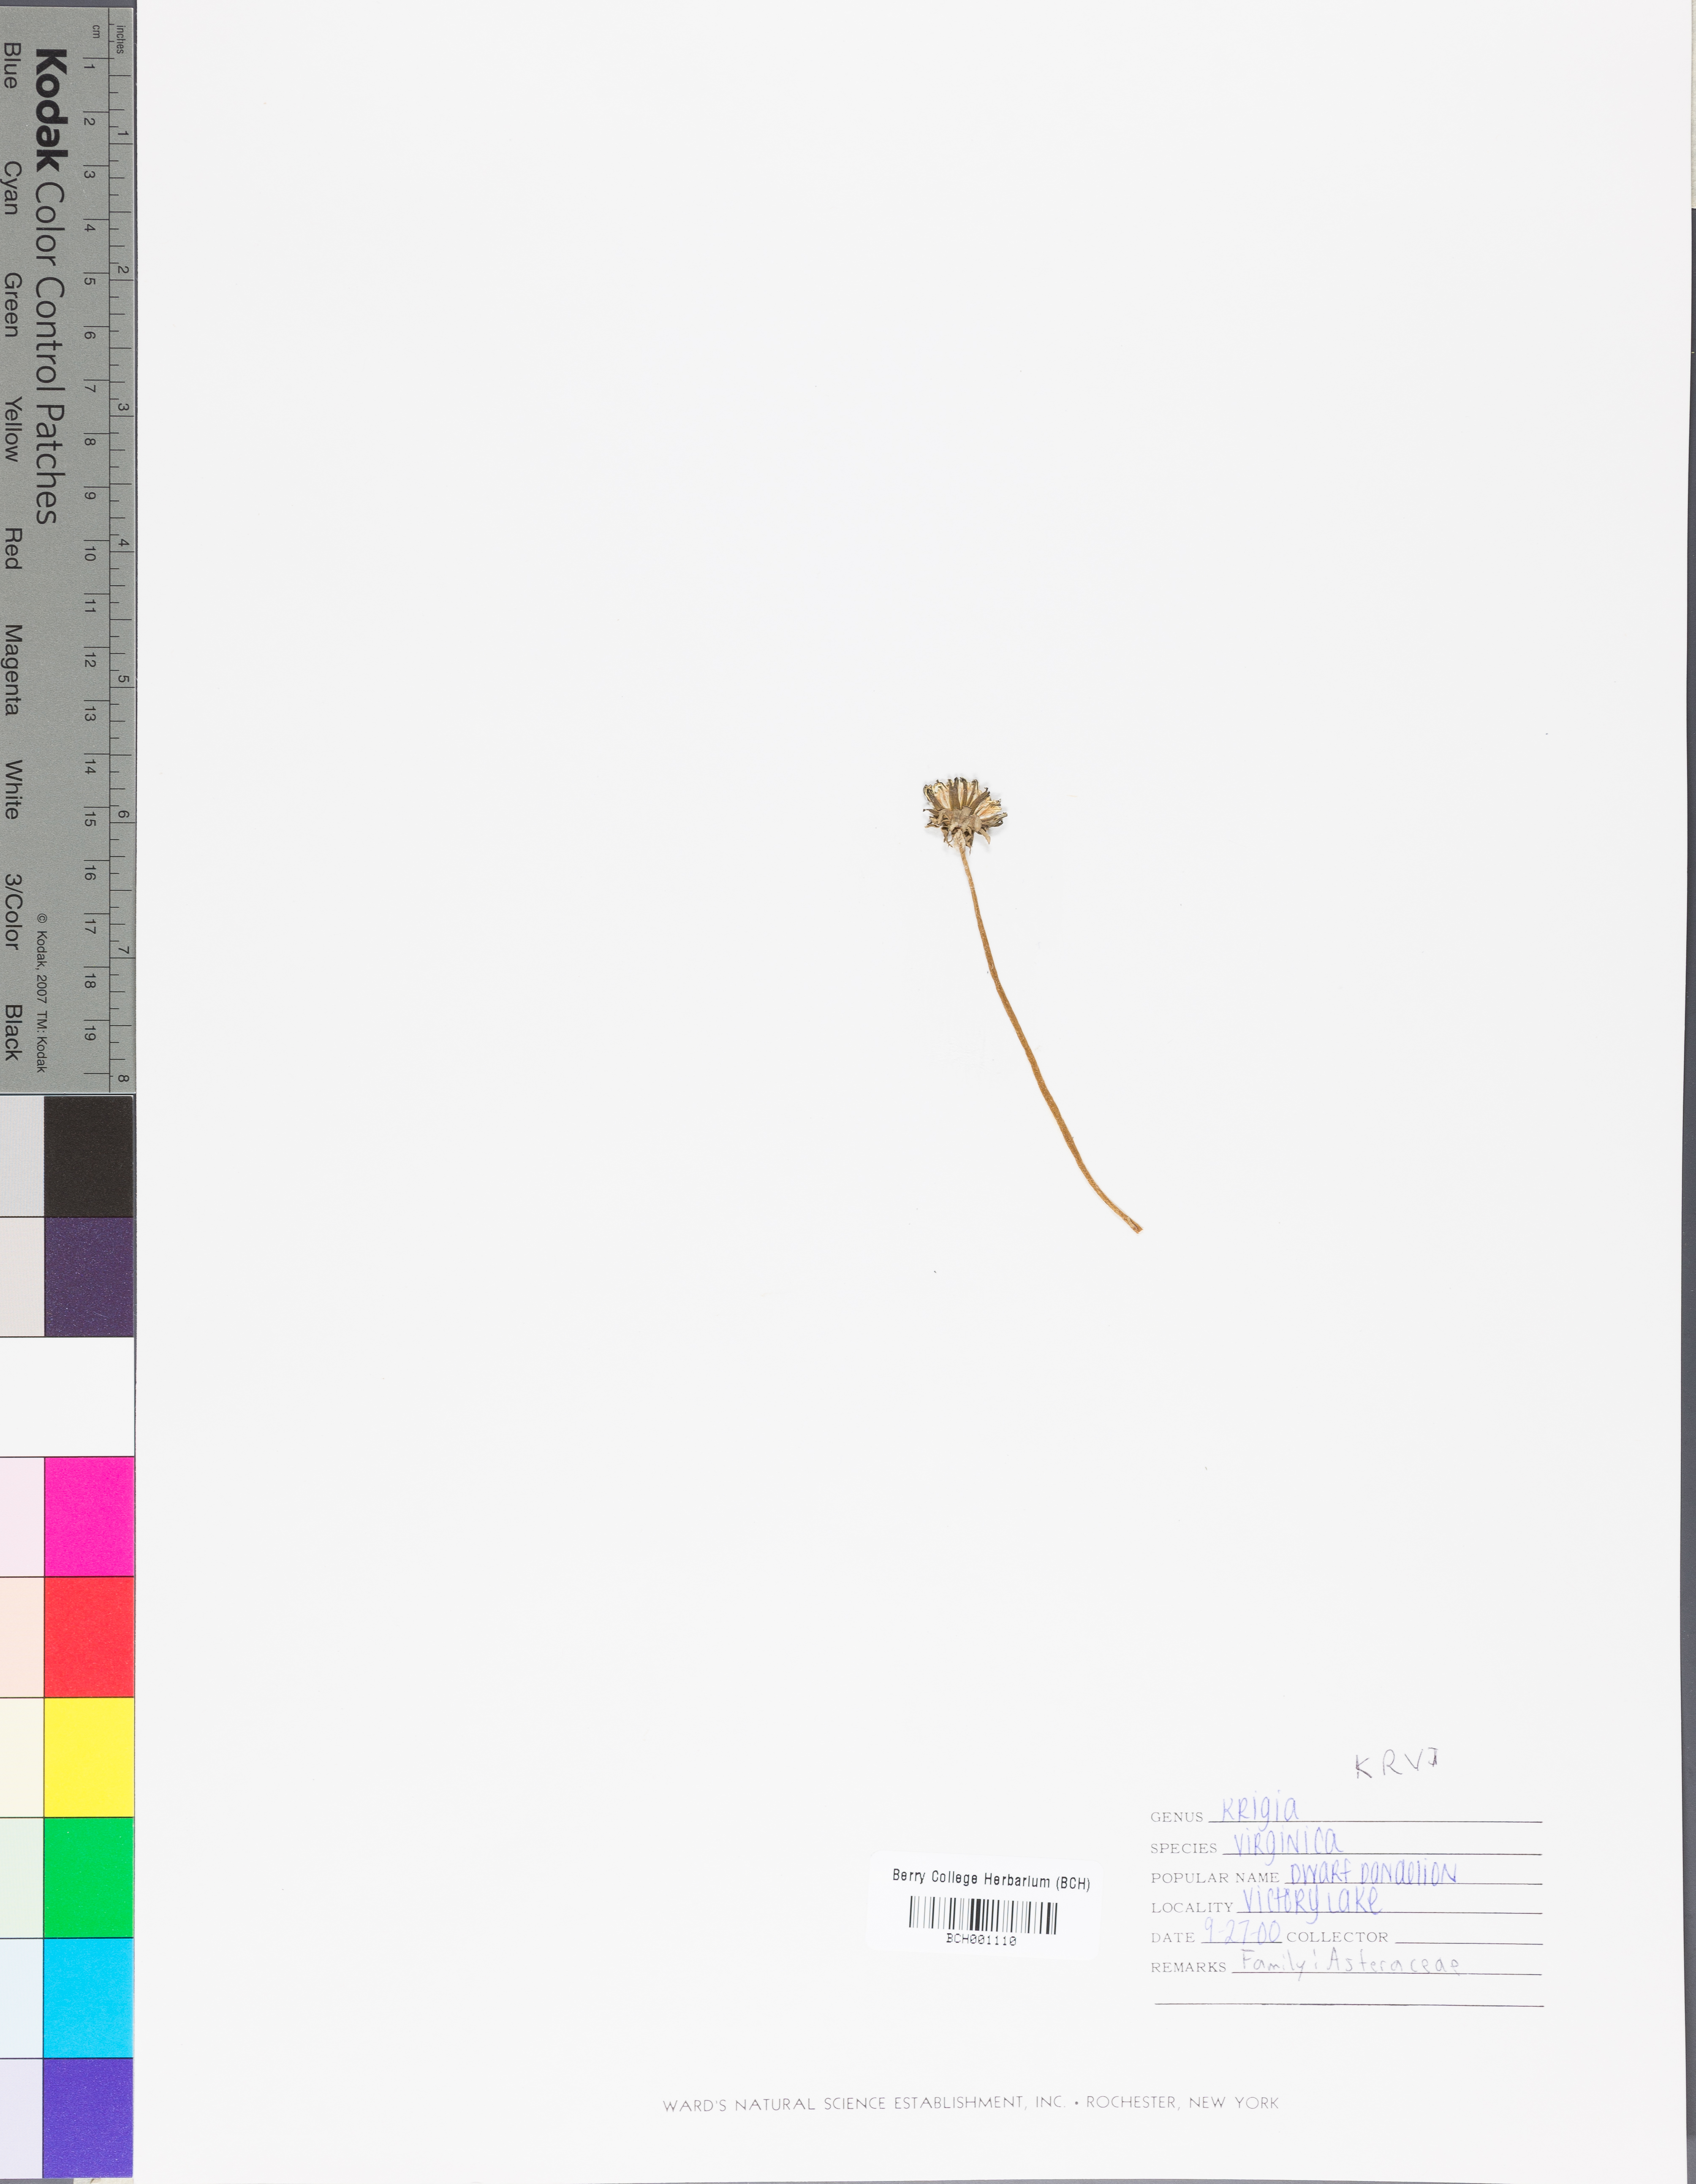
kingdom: Plantae
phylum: Tracheophyta
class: Magnoliopsida
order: Asterales
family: Asteraceae
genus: Krigia
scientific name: Krigia virginica
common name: Virginia dwarf-dandelion
